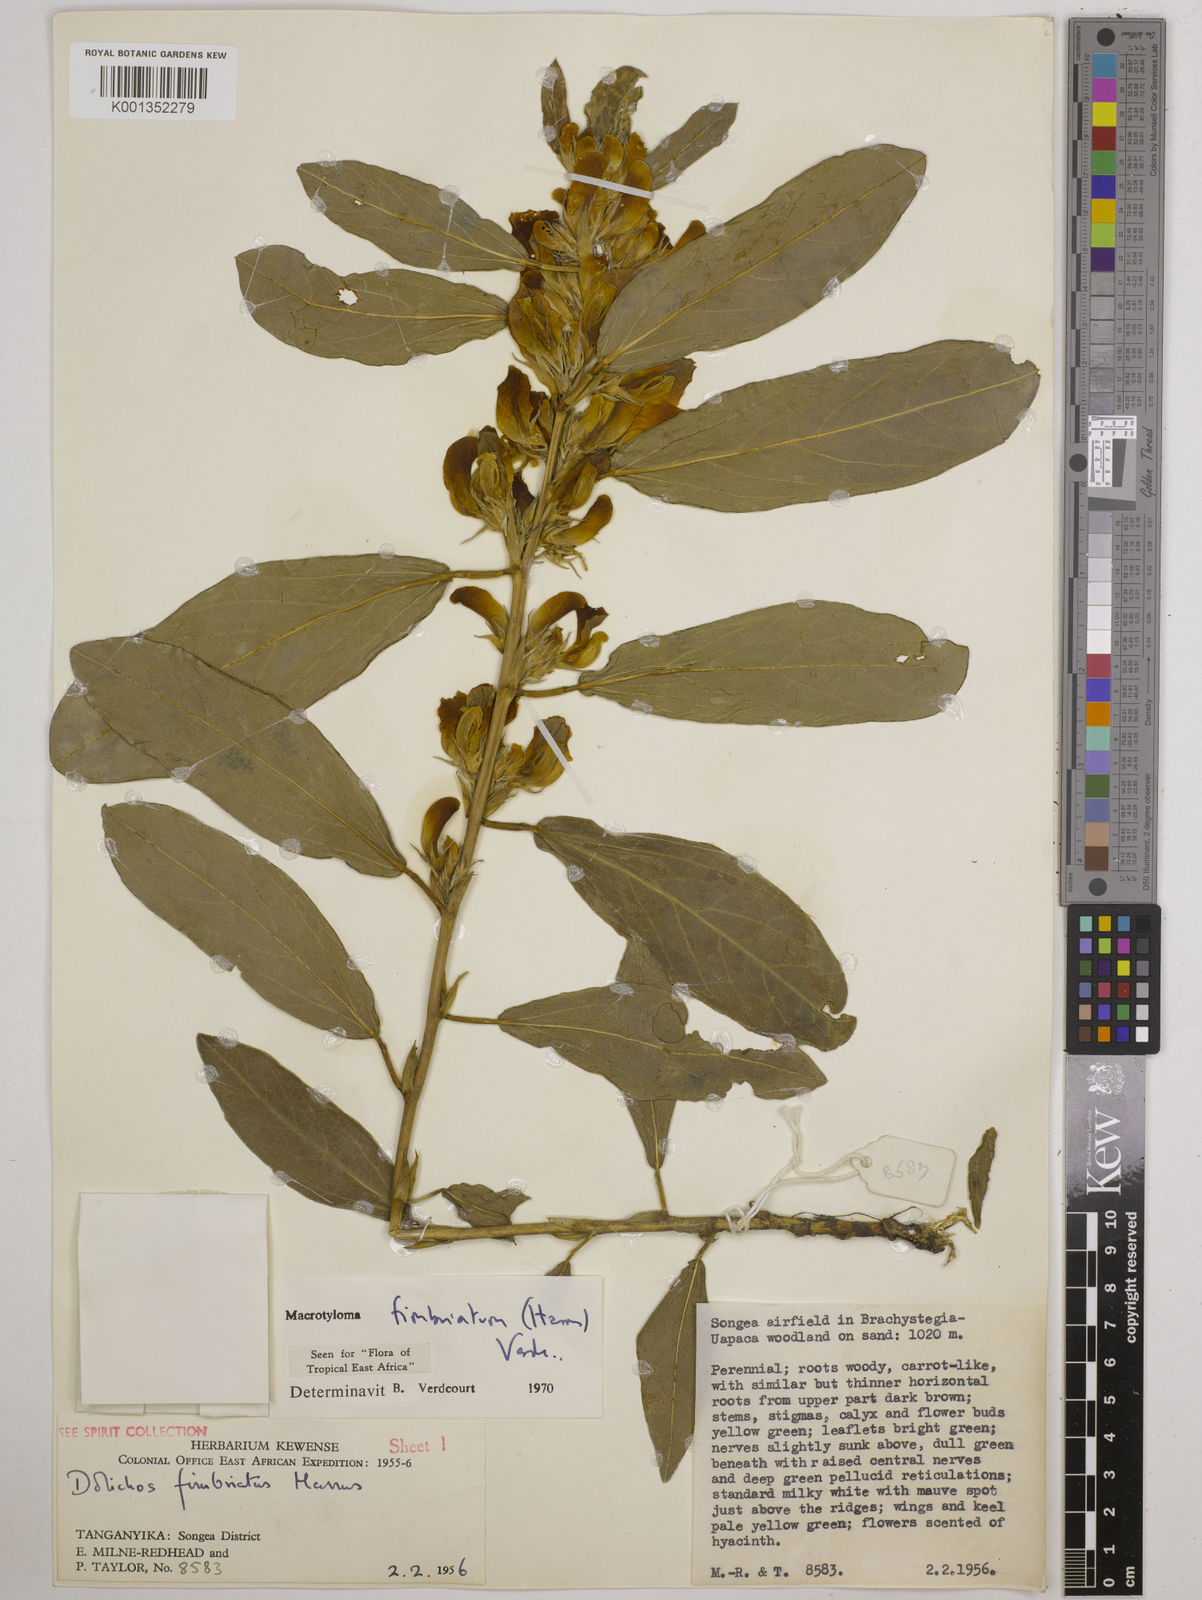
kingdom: Plantae
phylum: Tracheophyta
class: Magnoliopsida
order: Fabales
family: Fabaceae
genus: Macrotyloma
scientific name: Macrotyloma fimbriatum
